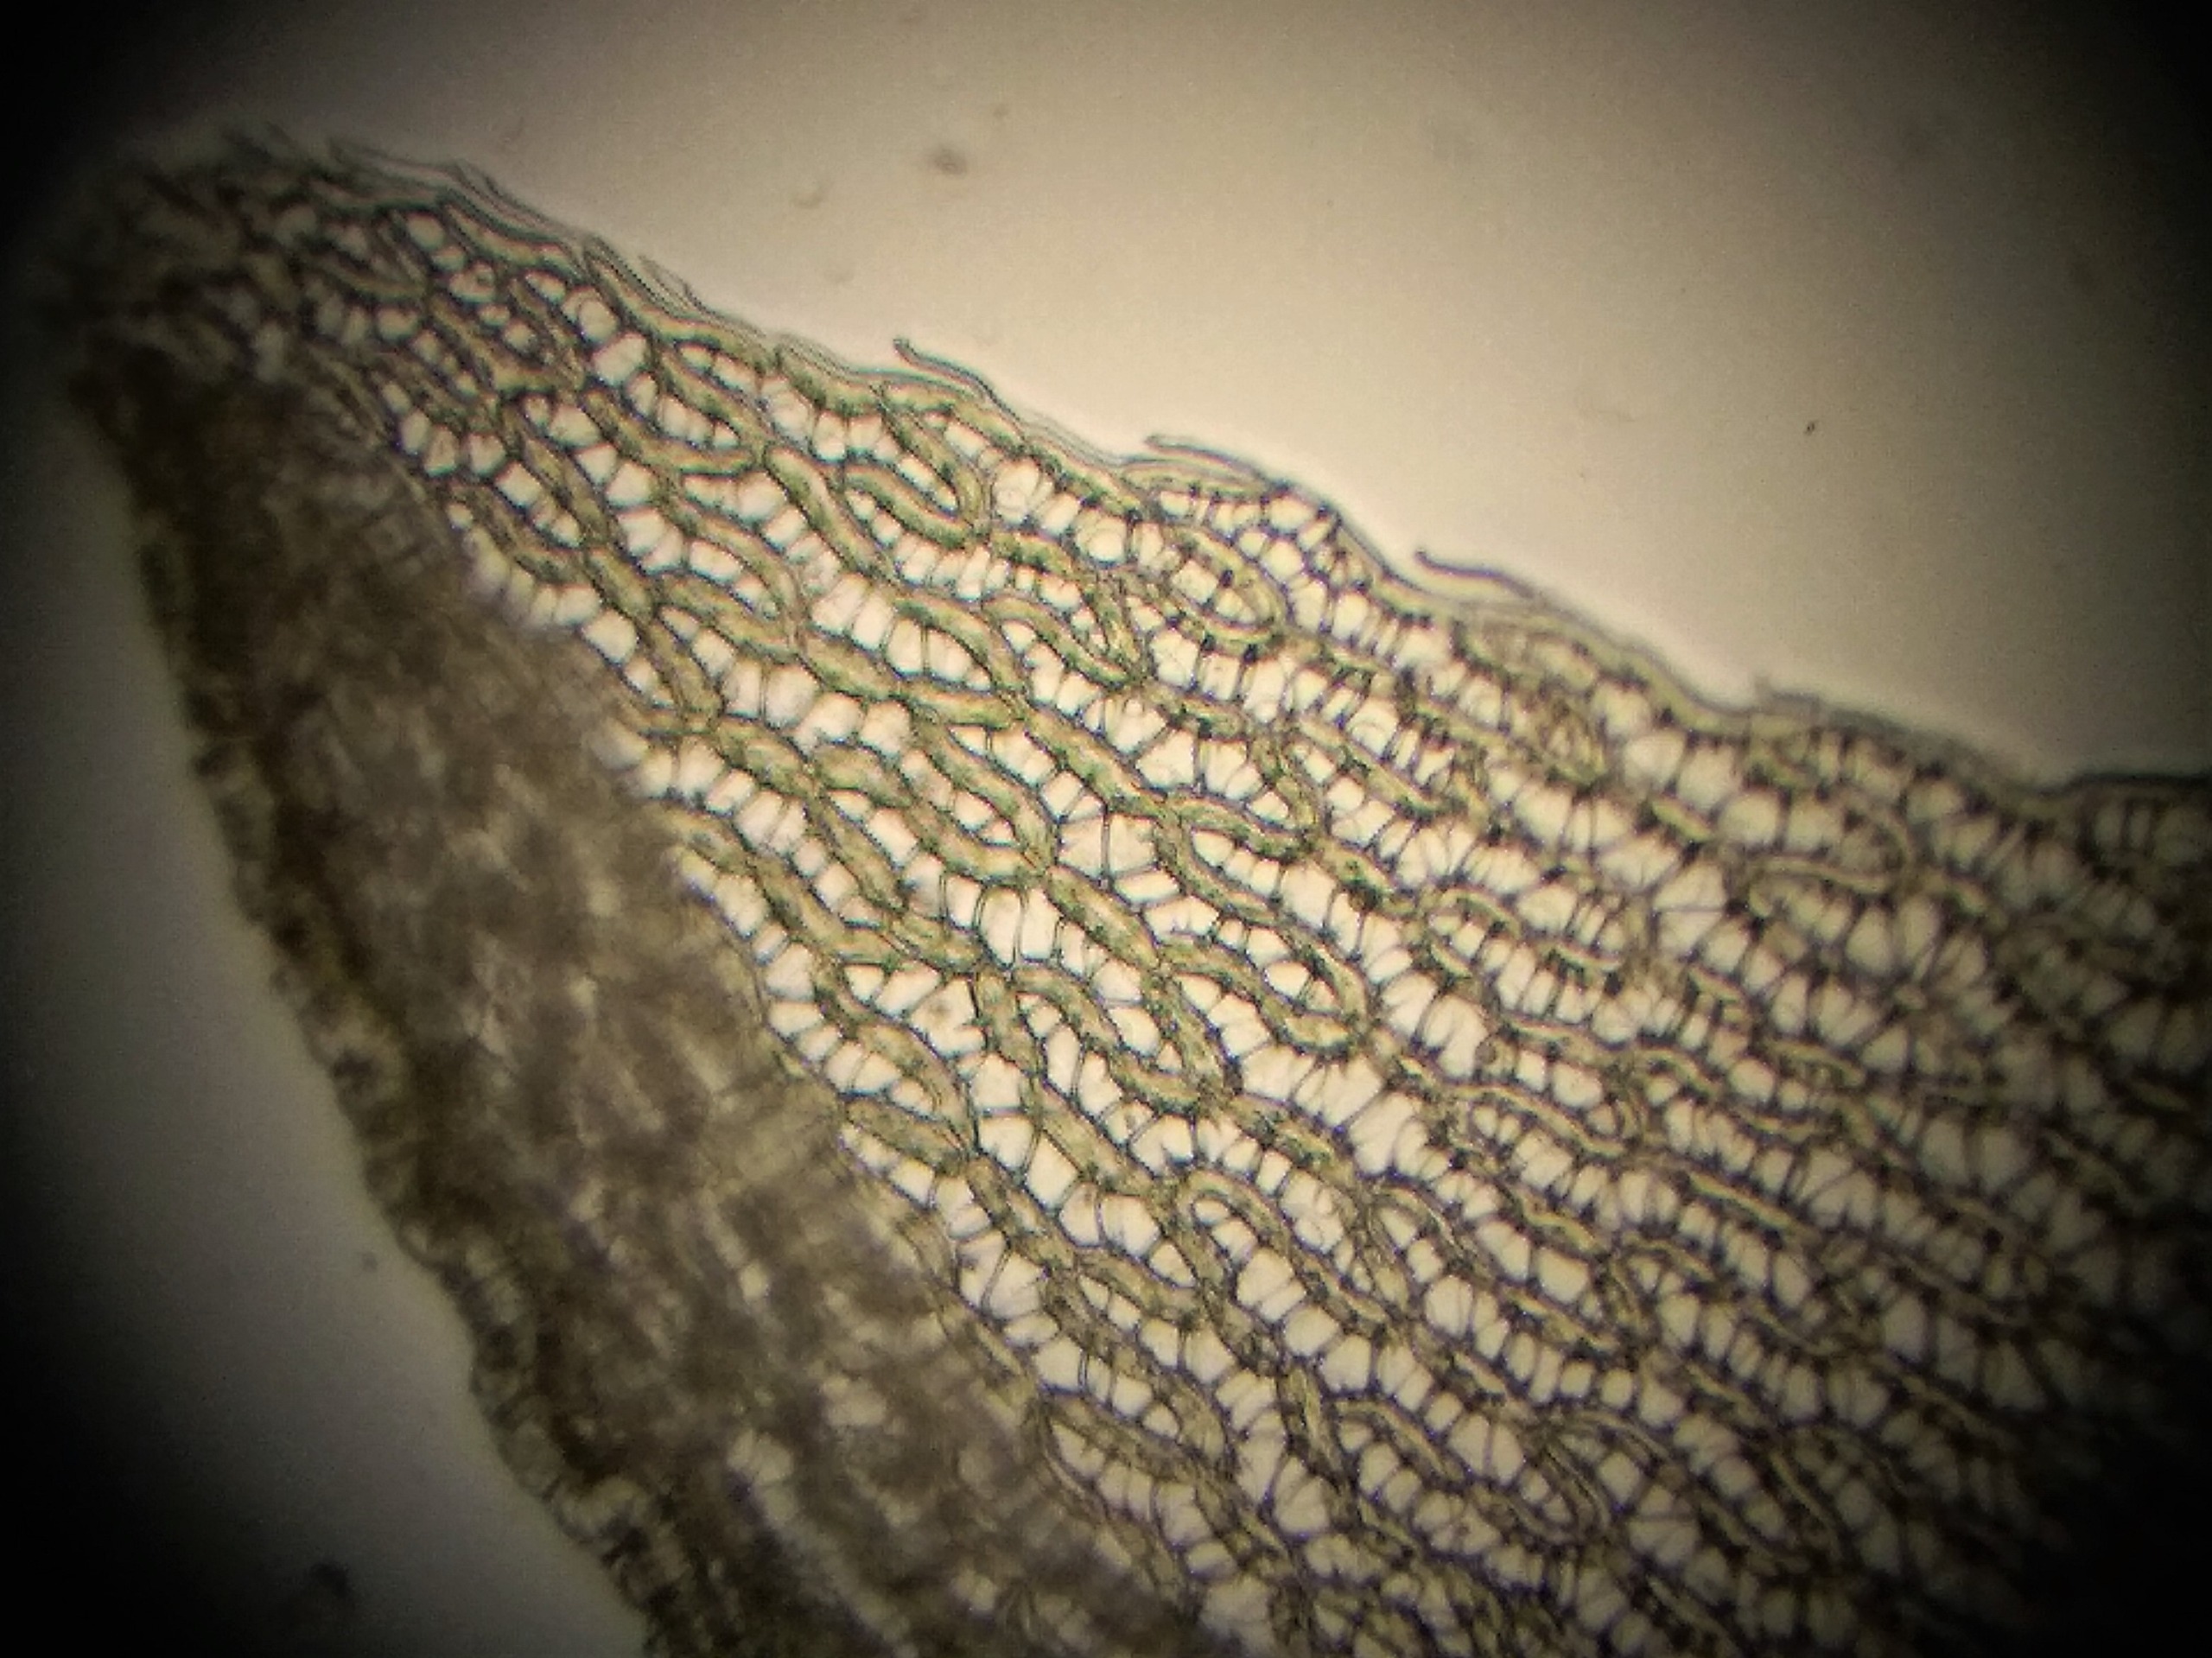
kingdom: Plantae
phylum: Bryophyta
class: Sphagnopsida
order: Sphagnales
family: Sphagnaceae
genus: Sphagnum
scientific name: Sphagnum molle
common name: Blød tørvemos
